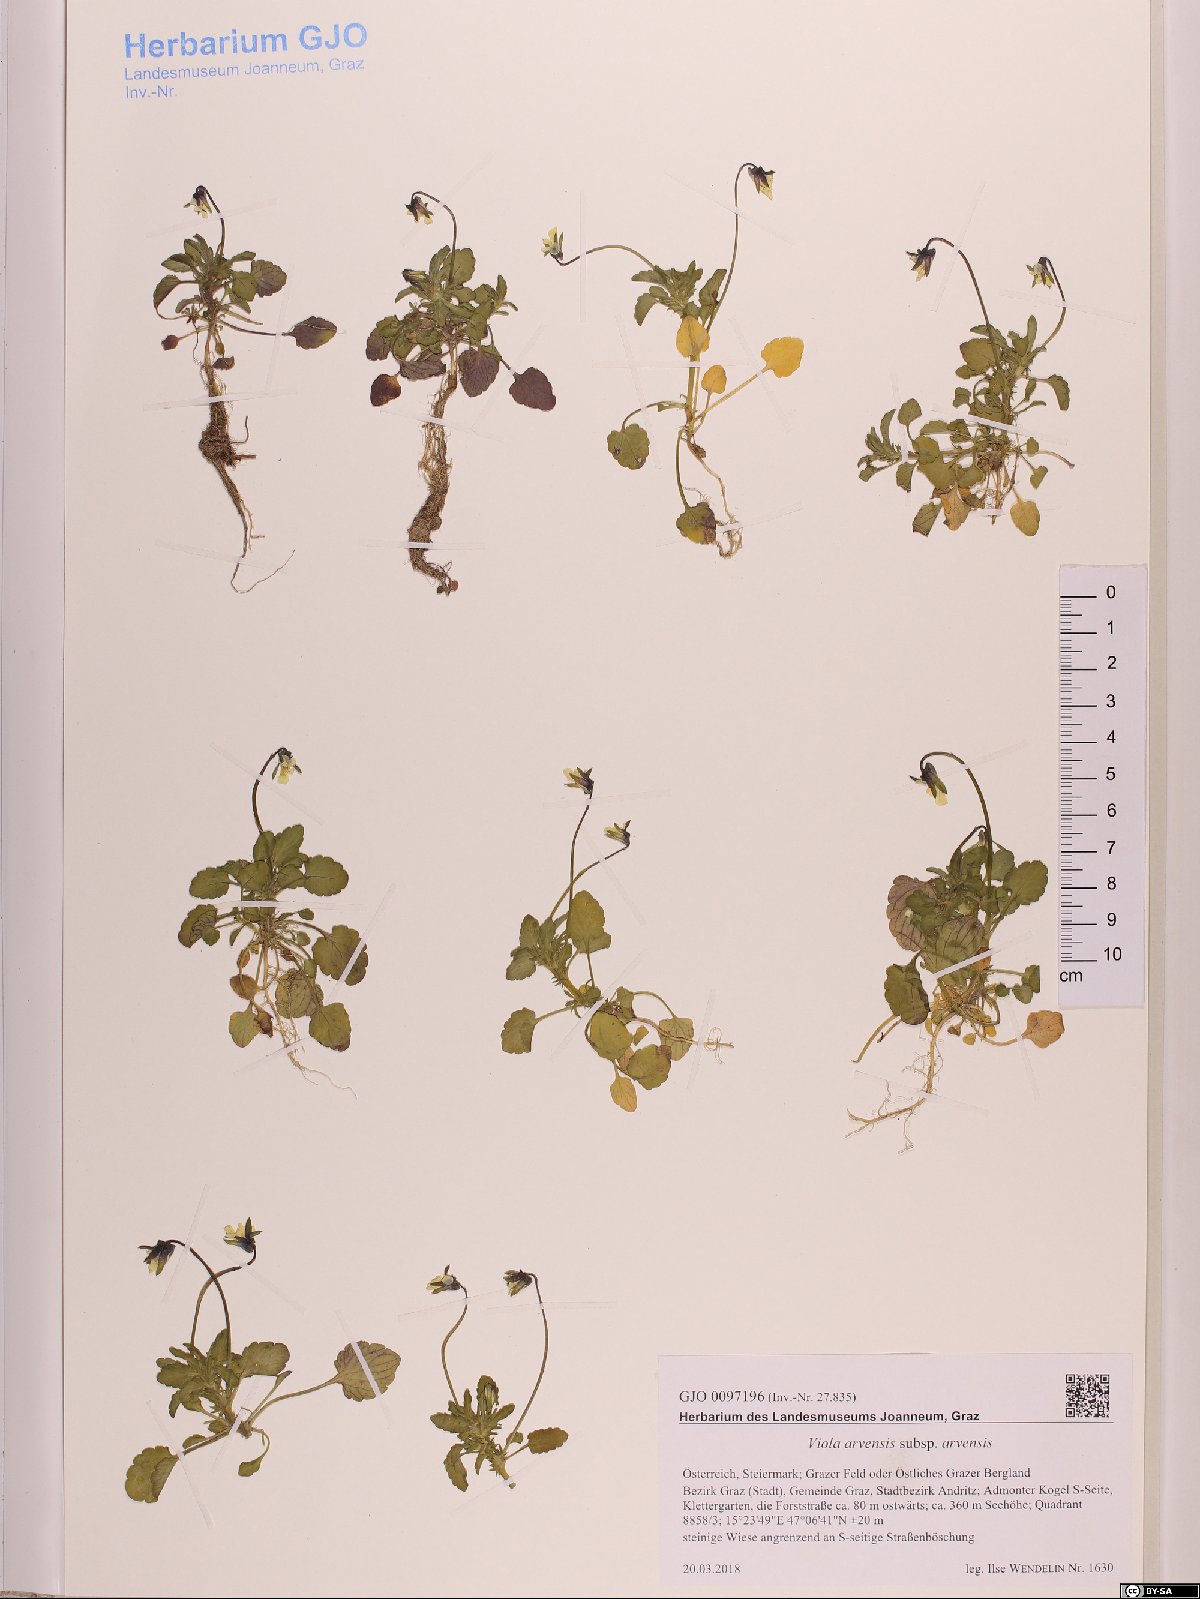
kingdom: Plantae
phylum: Tracheophyta
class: Magnoliopsida
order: Malpighiales
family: Violaceae
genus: Viola
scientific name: Viola arvensis
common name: Field pansy
